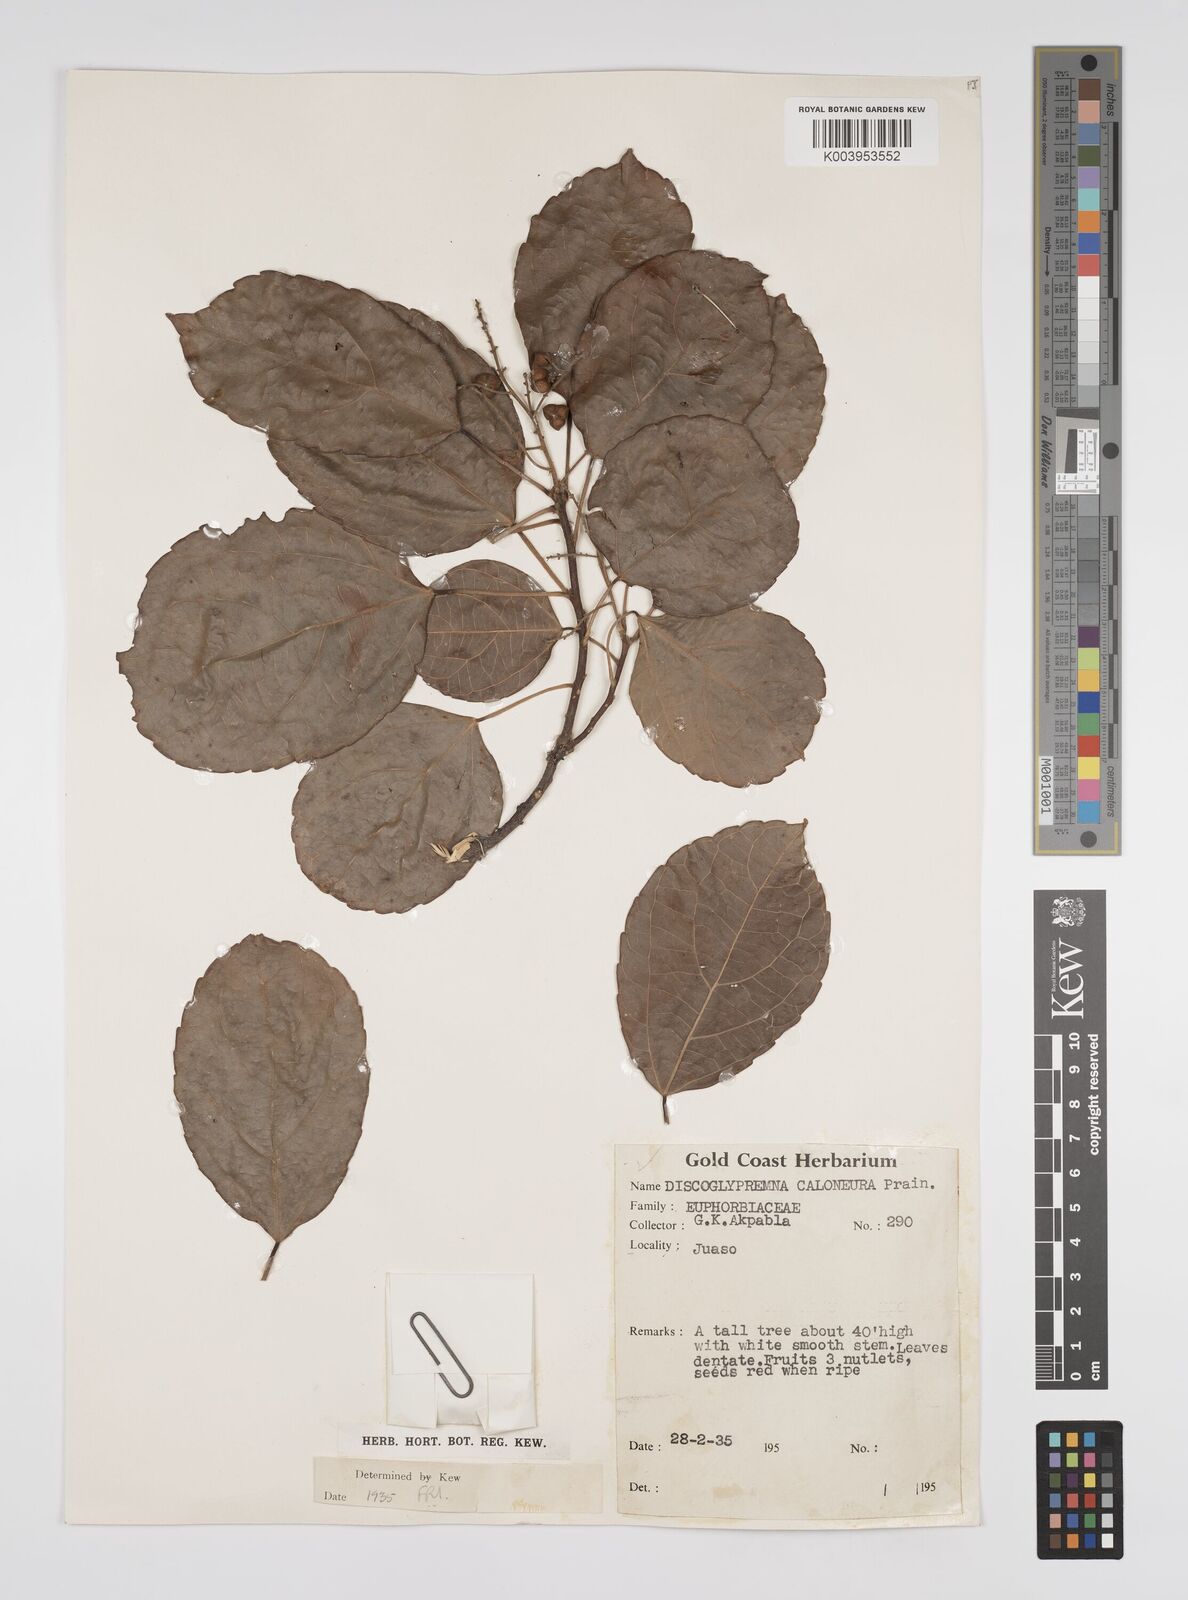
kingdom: Plantae
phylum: Tracheophyta
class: Magnoliopsida
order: Malpighiales
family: Euphorbiaceae
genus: Discoglypremna
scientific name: Discoglypremna caloneura
